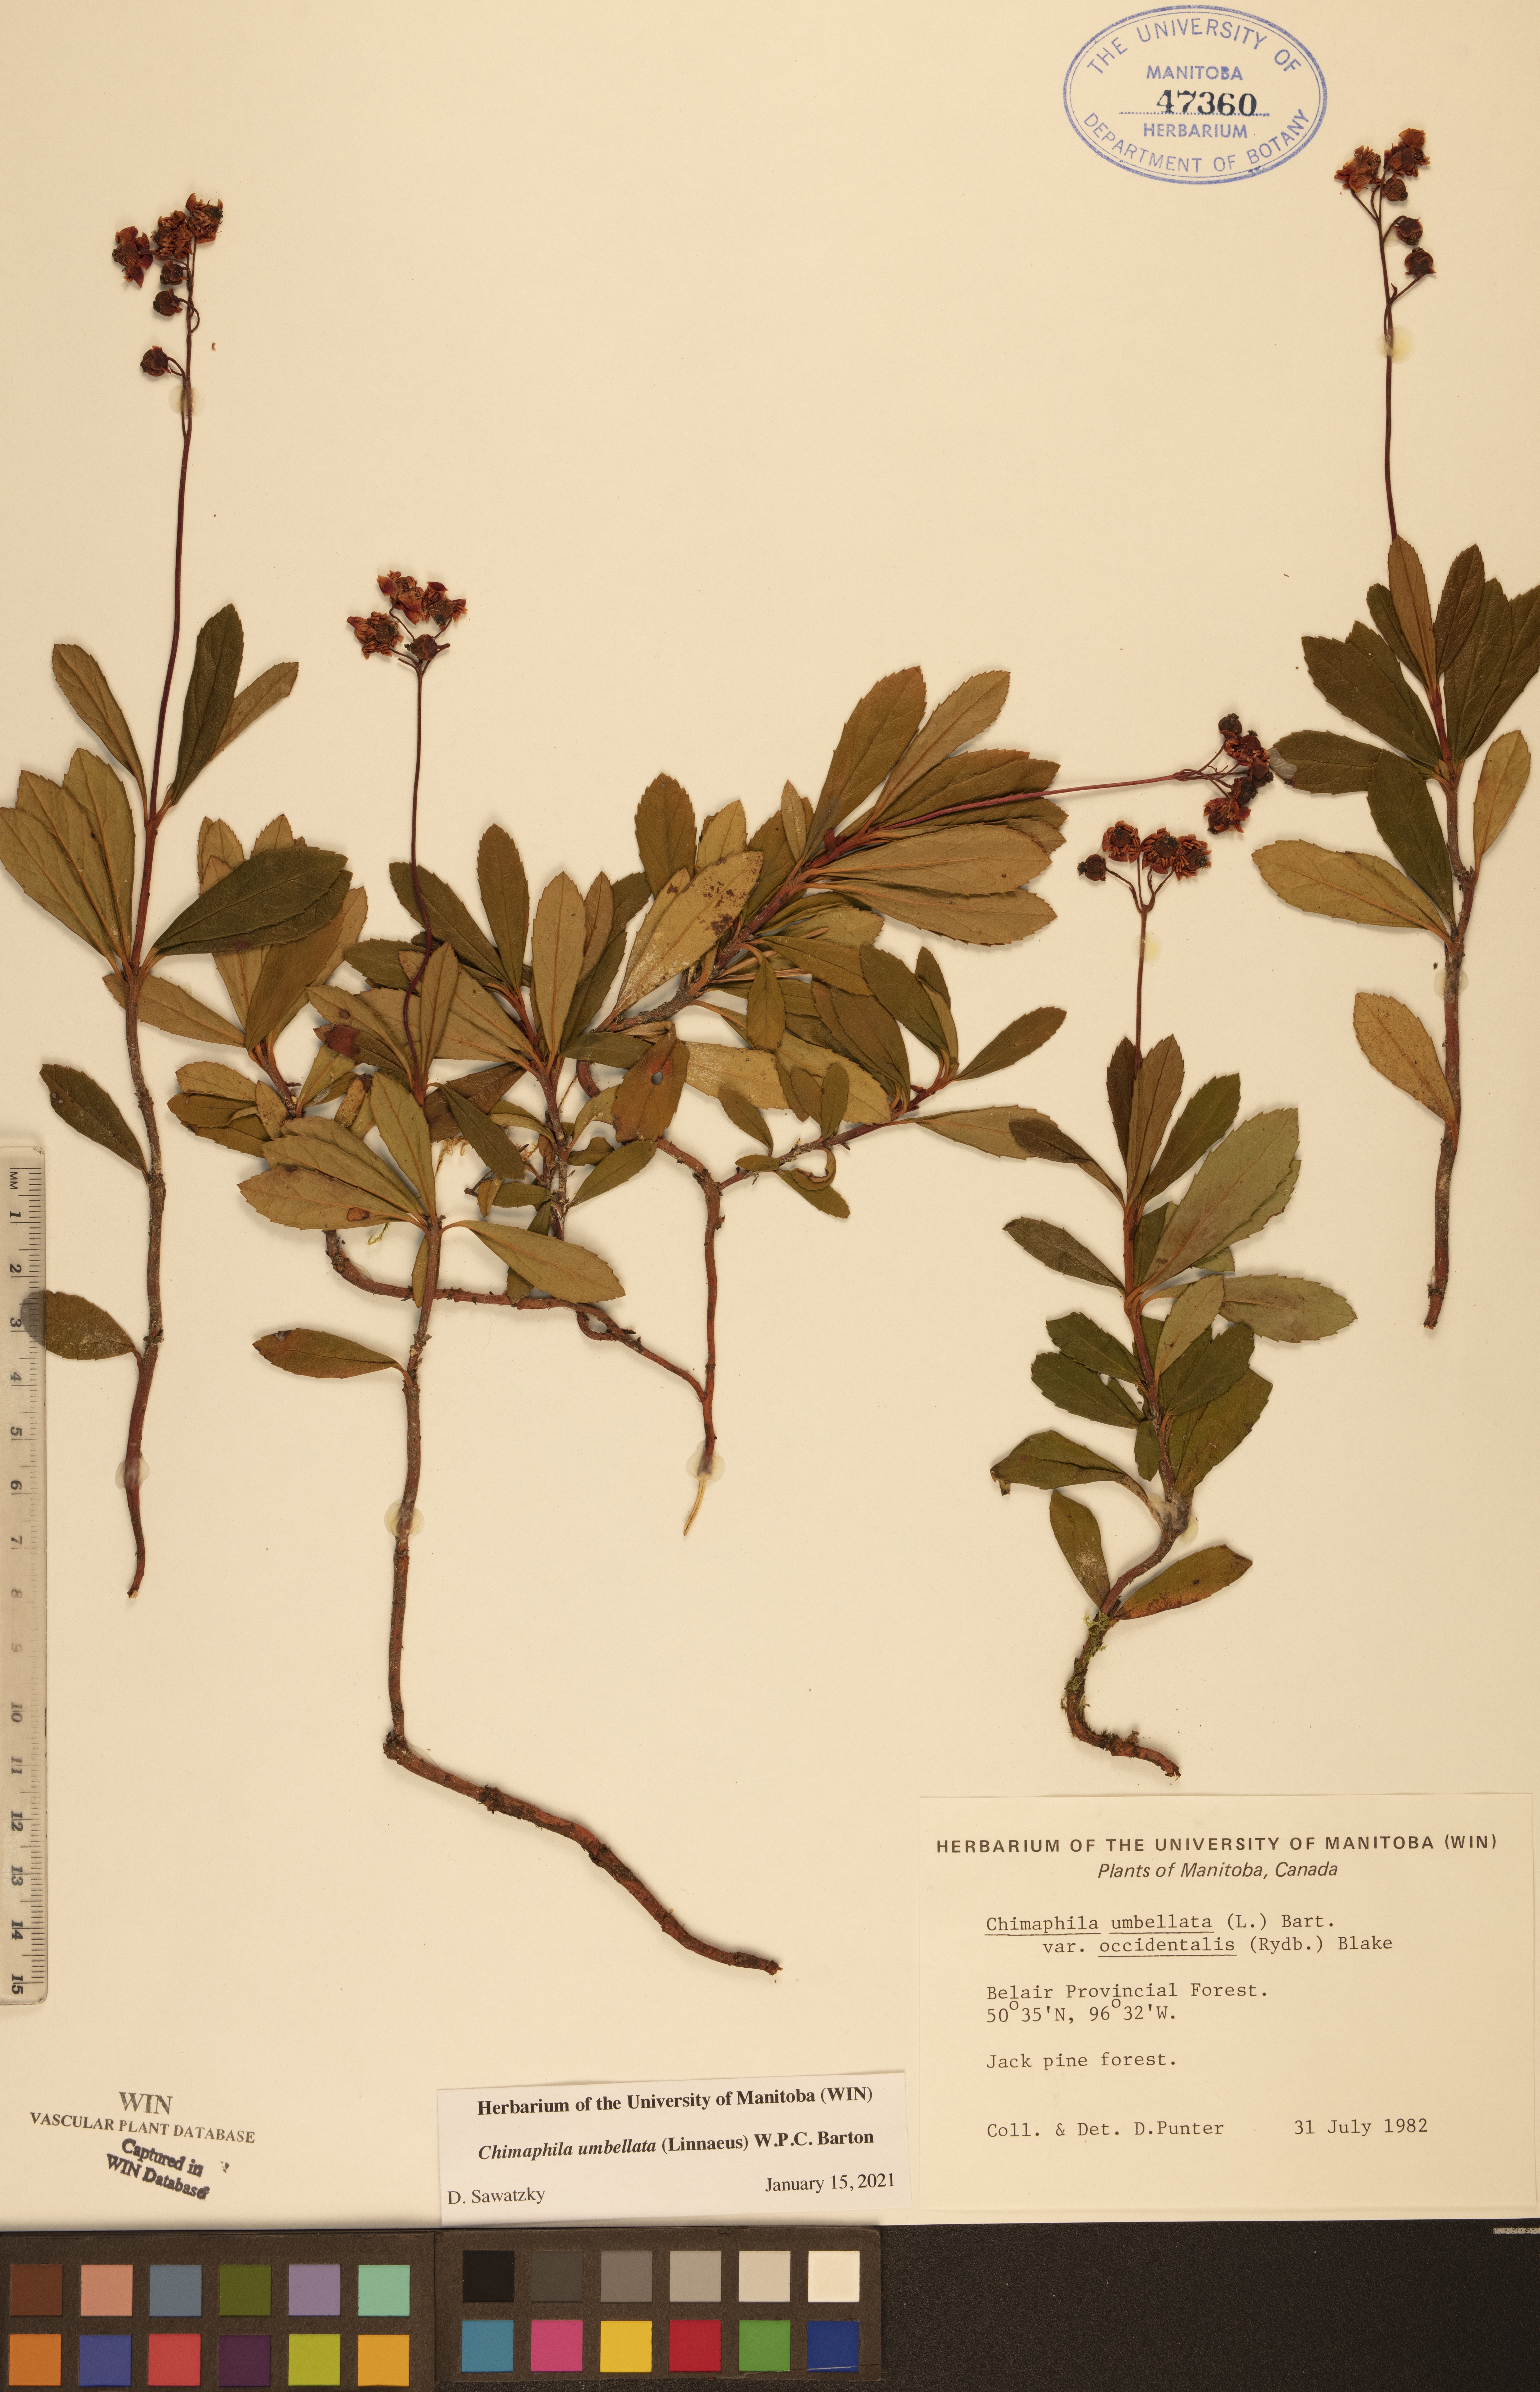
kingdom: Plantae
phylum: Tracheophyta
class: Magnoliopsida
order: Ericales
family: Ericaceae
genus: Chimaphila
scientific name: Chimaphila umbellata
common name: Pipsissewa
